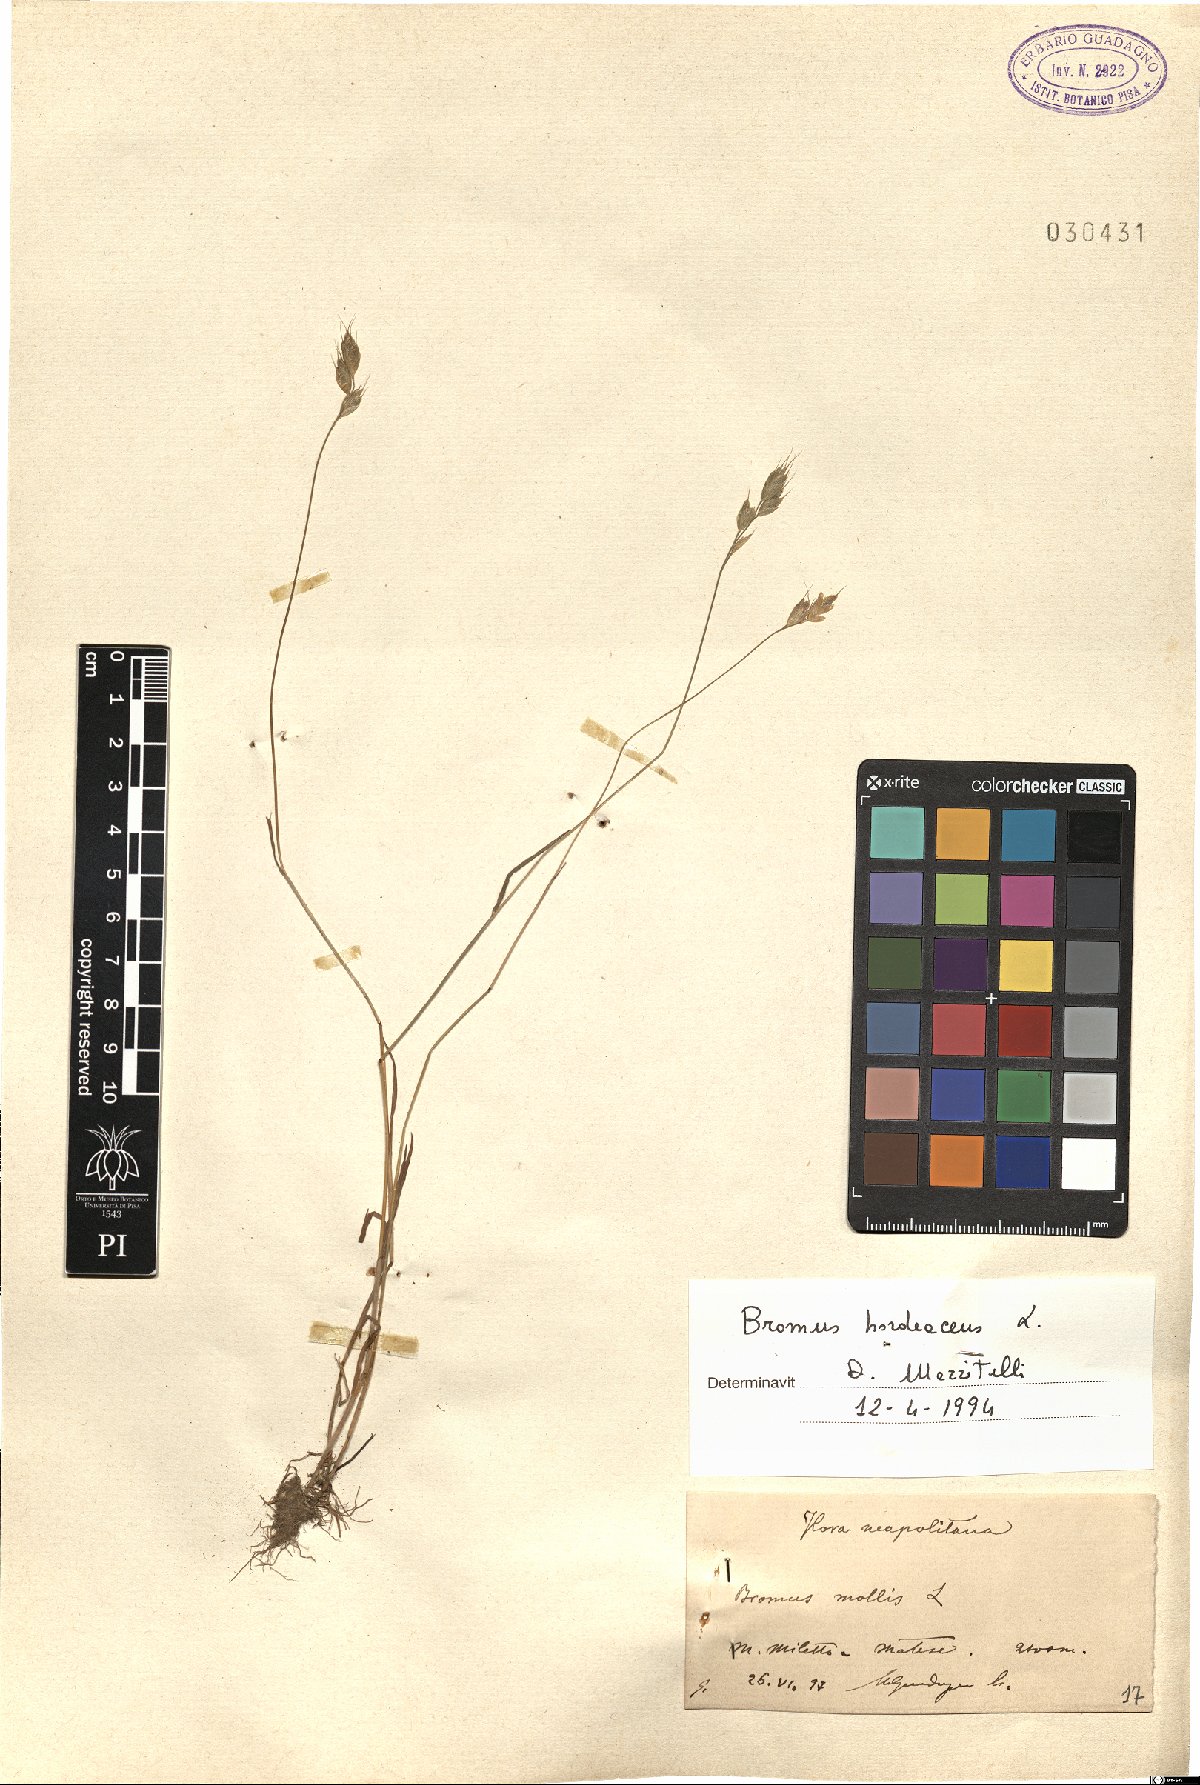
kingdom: Plantae
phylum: Tracheophyta
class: Liliopsida
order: Poales
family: Poaceae
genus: Bromus
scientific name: Bromus hordeaceus
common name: Soft brome
